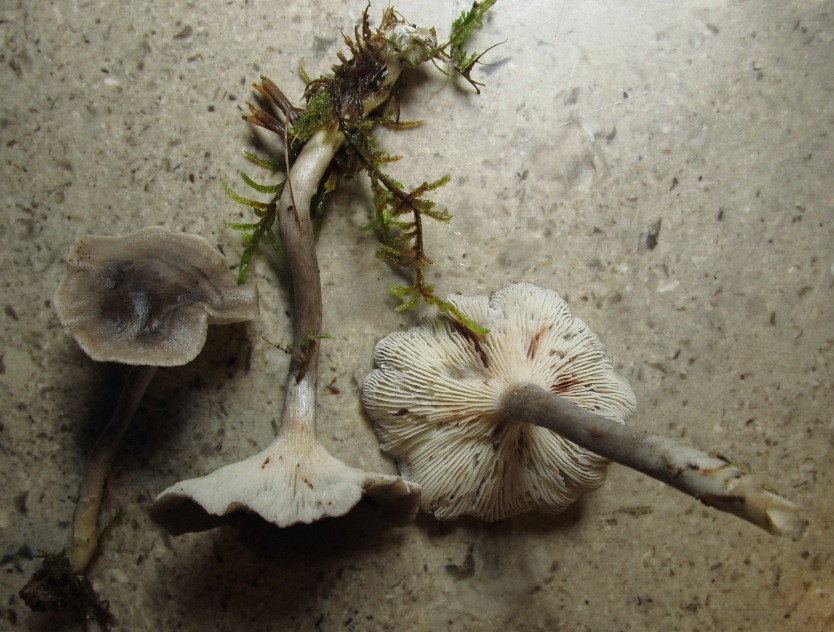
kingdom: Fungi
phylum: Basidiomycota
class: Agaricomycetes
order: Agaricales
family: Hygrophoraceae
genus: Cantharellula
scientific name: Cantharellula umbonata
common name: rødmende gaffelblad
